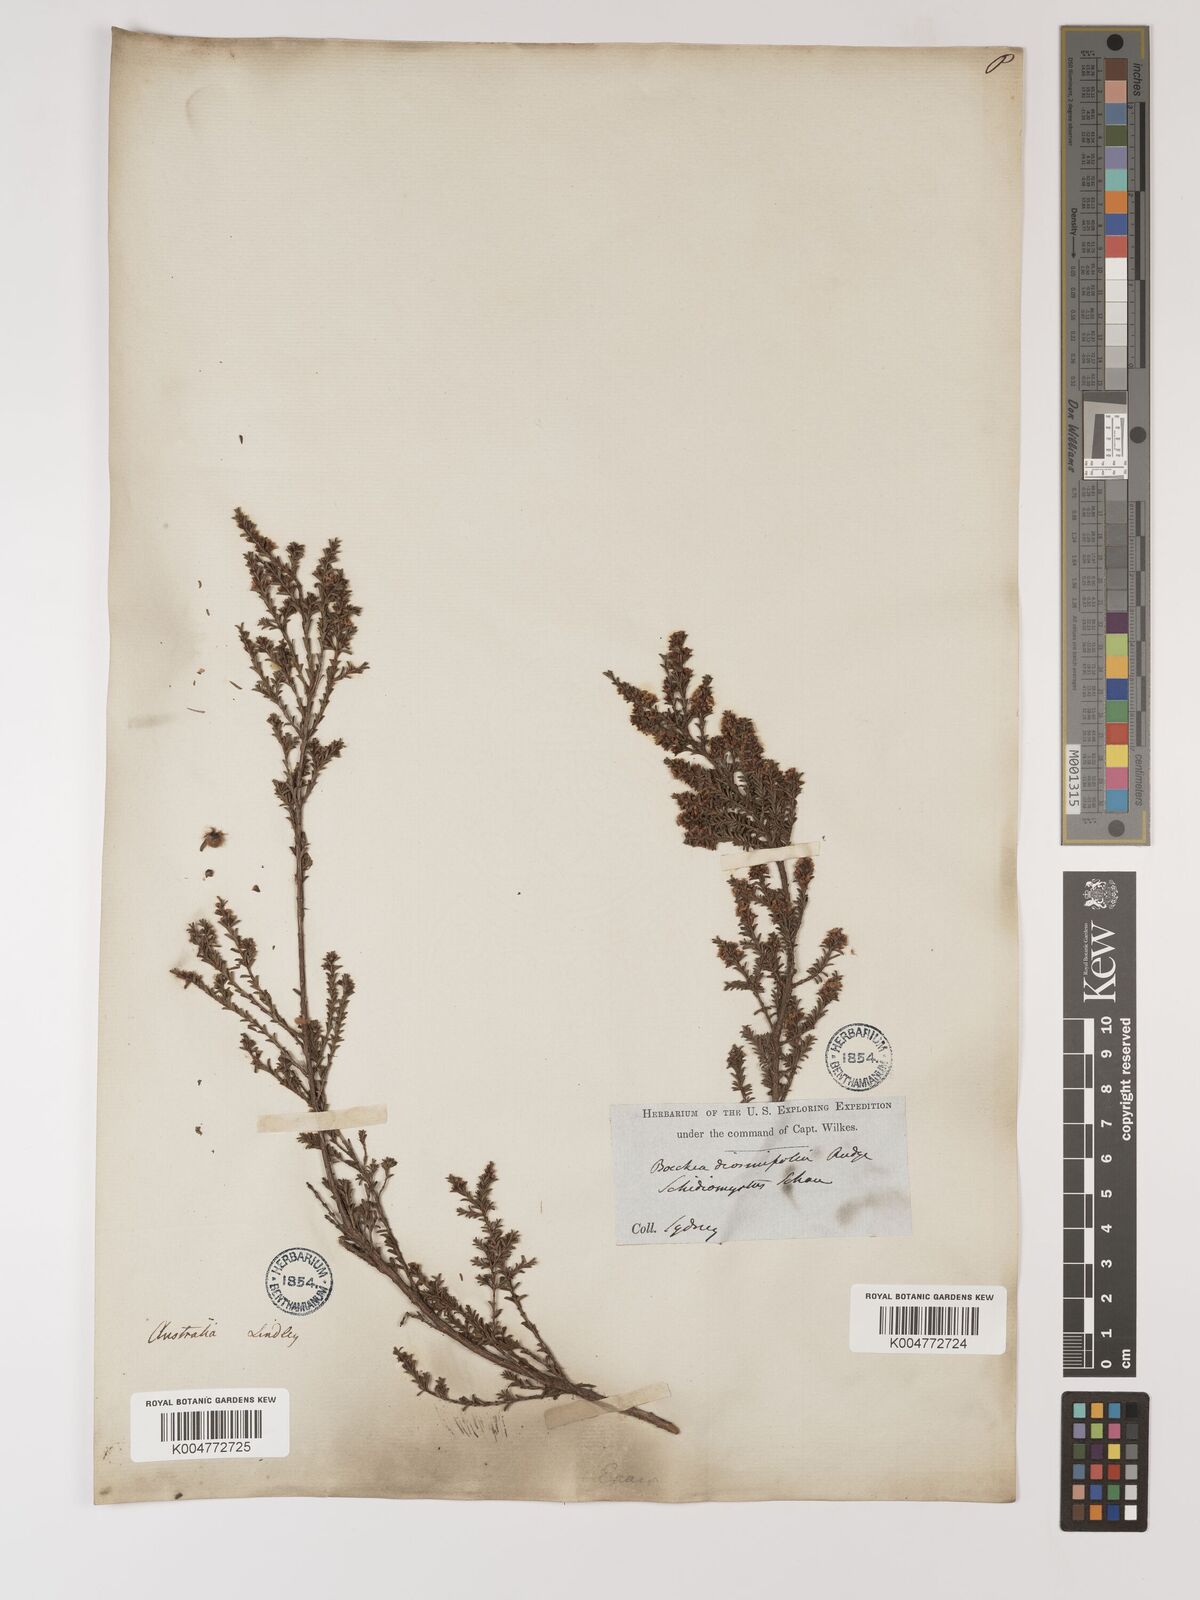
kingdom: Plantae
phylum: Tracheophyta
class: Magnoliopsida
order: Myrtales
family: Myrtaceae
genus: Baeckea
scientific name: Baeckea diosmifolia
